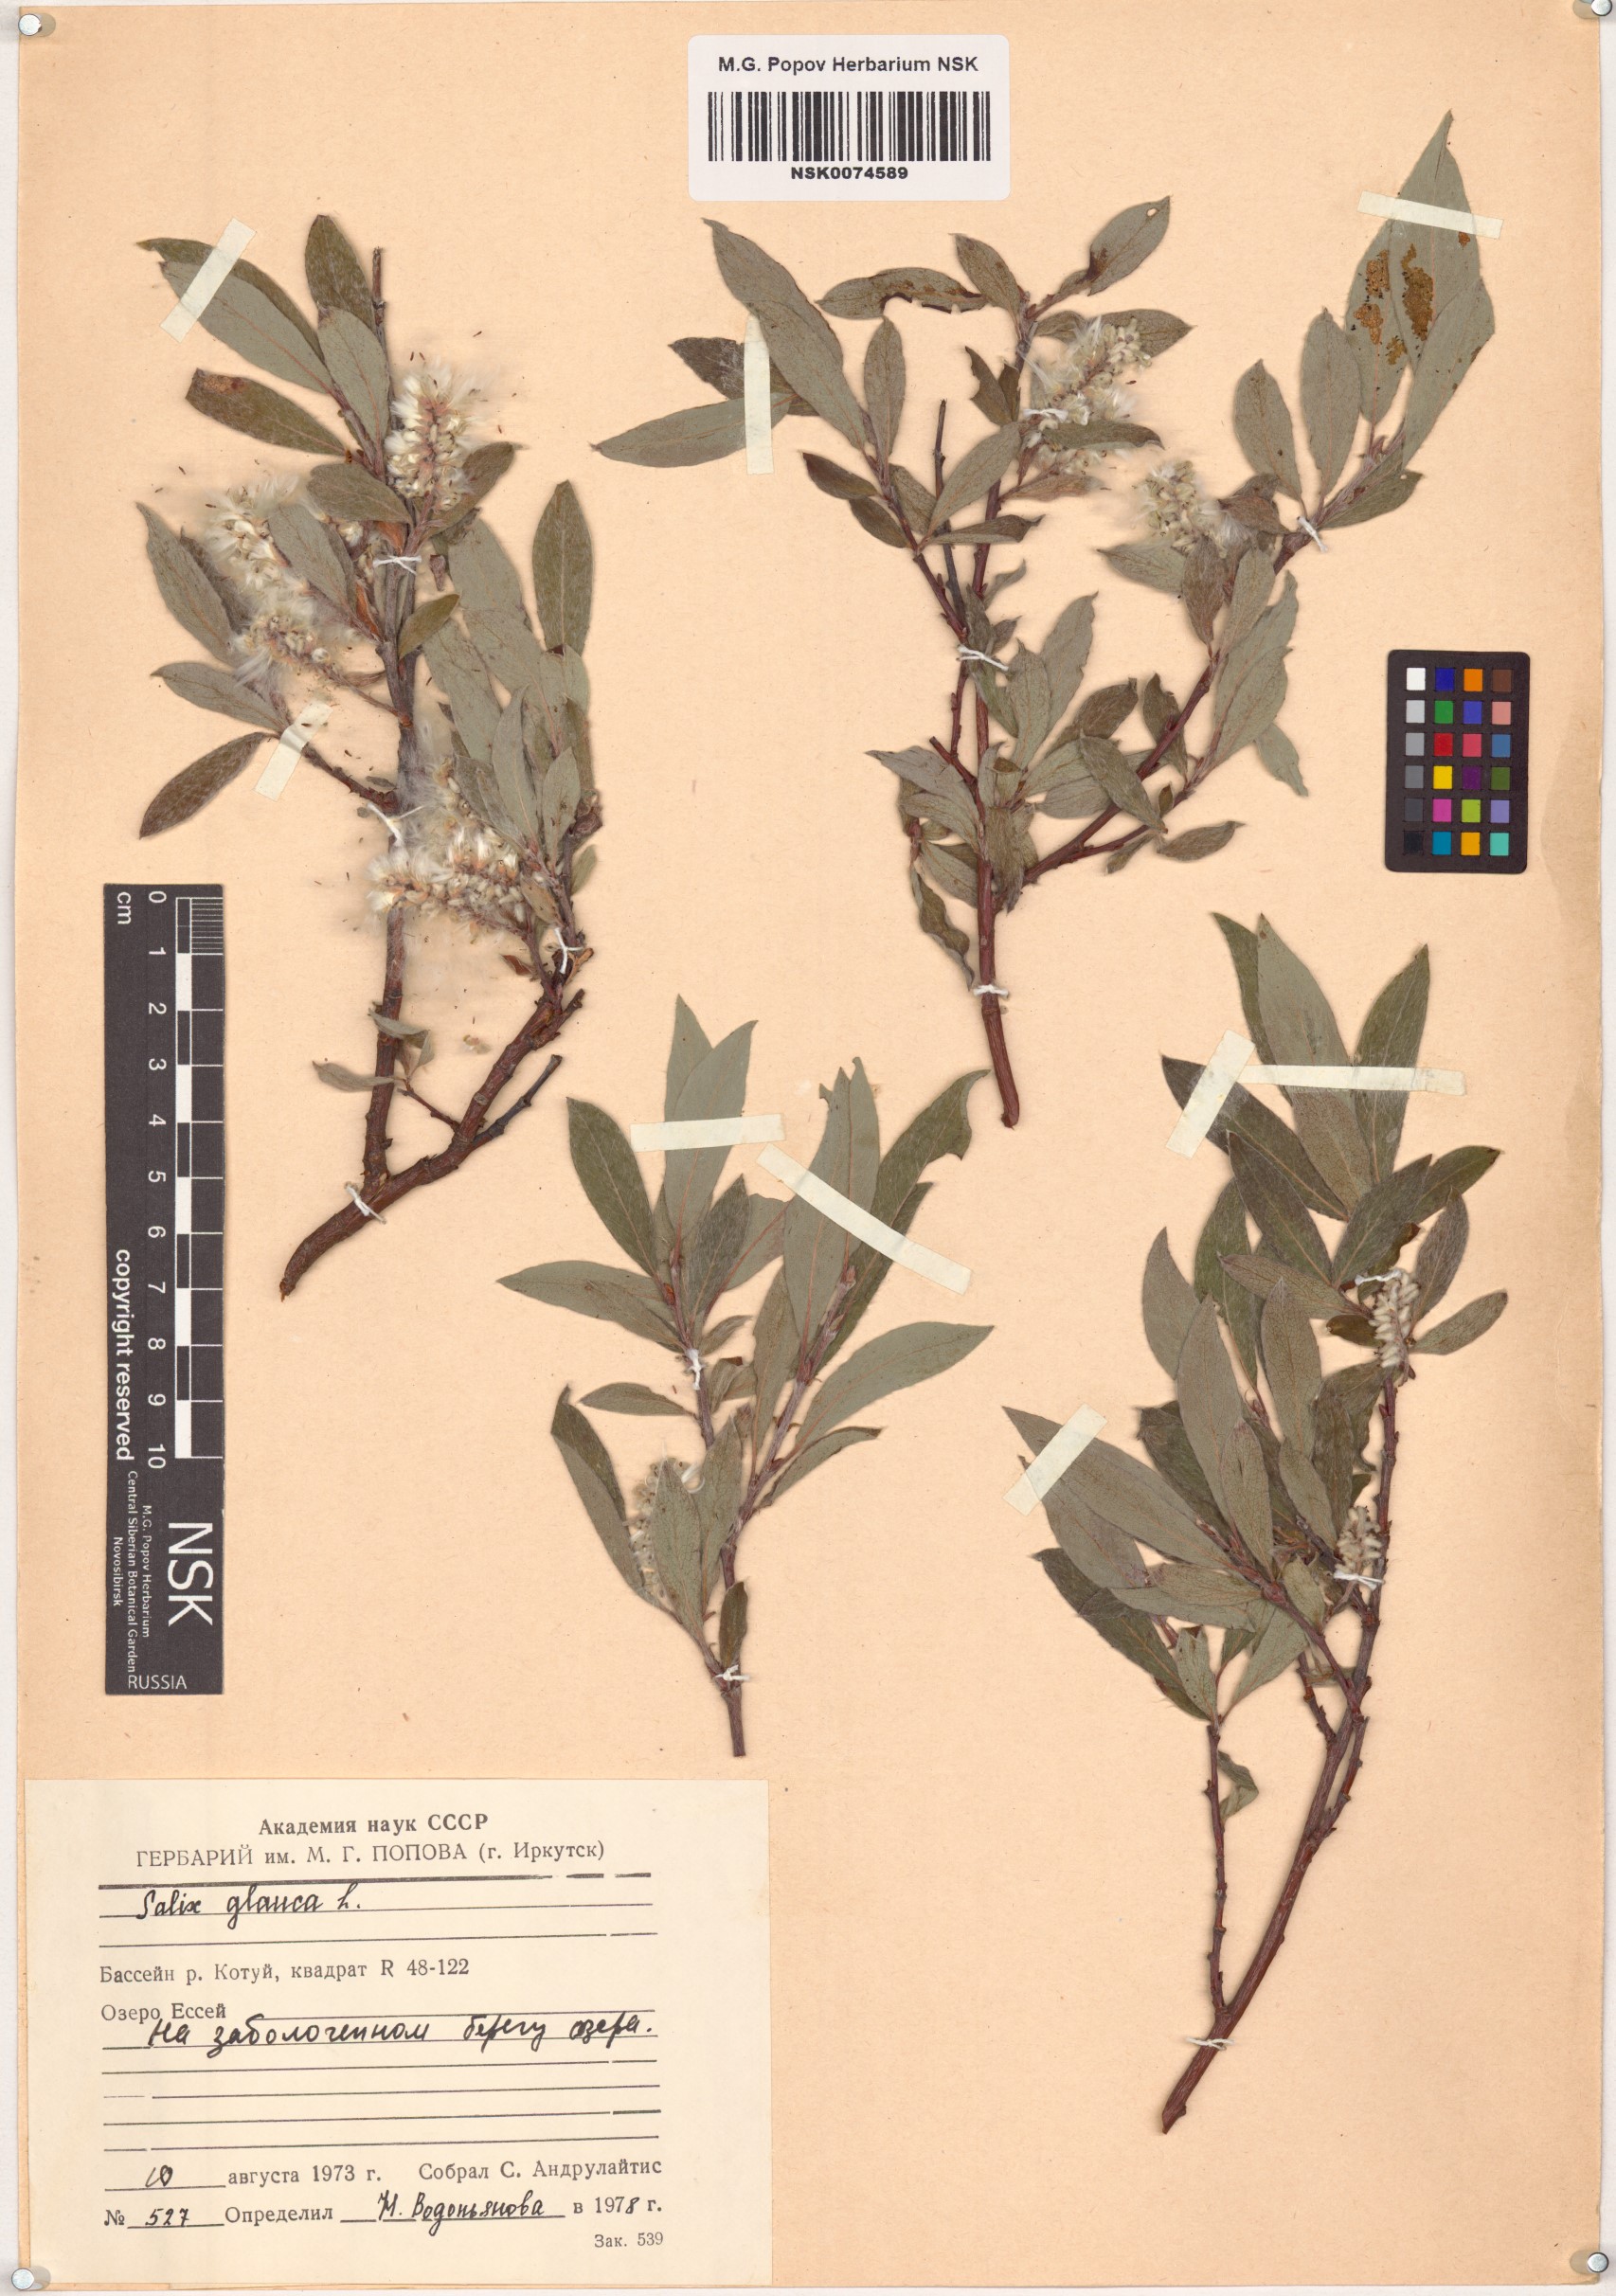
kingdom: Plantae
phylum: Tracheophyta
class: Magnoliopsida
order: Malpighiales
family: Salicaceae
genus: Salix
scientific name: Salix glauca
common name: Glaucous willow
